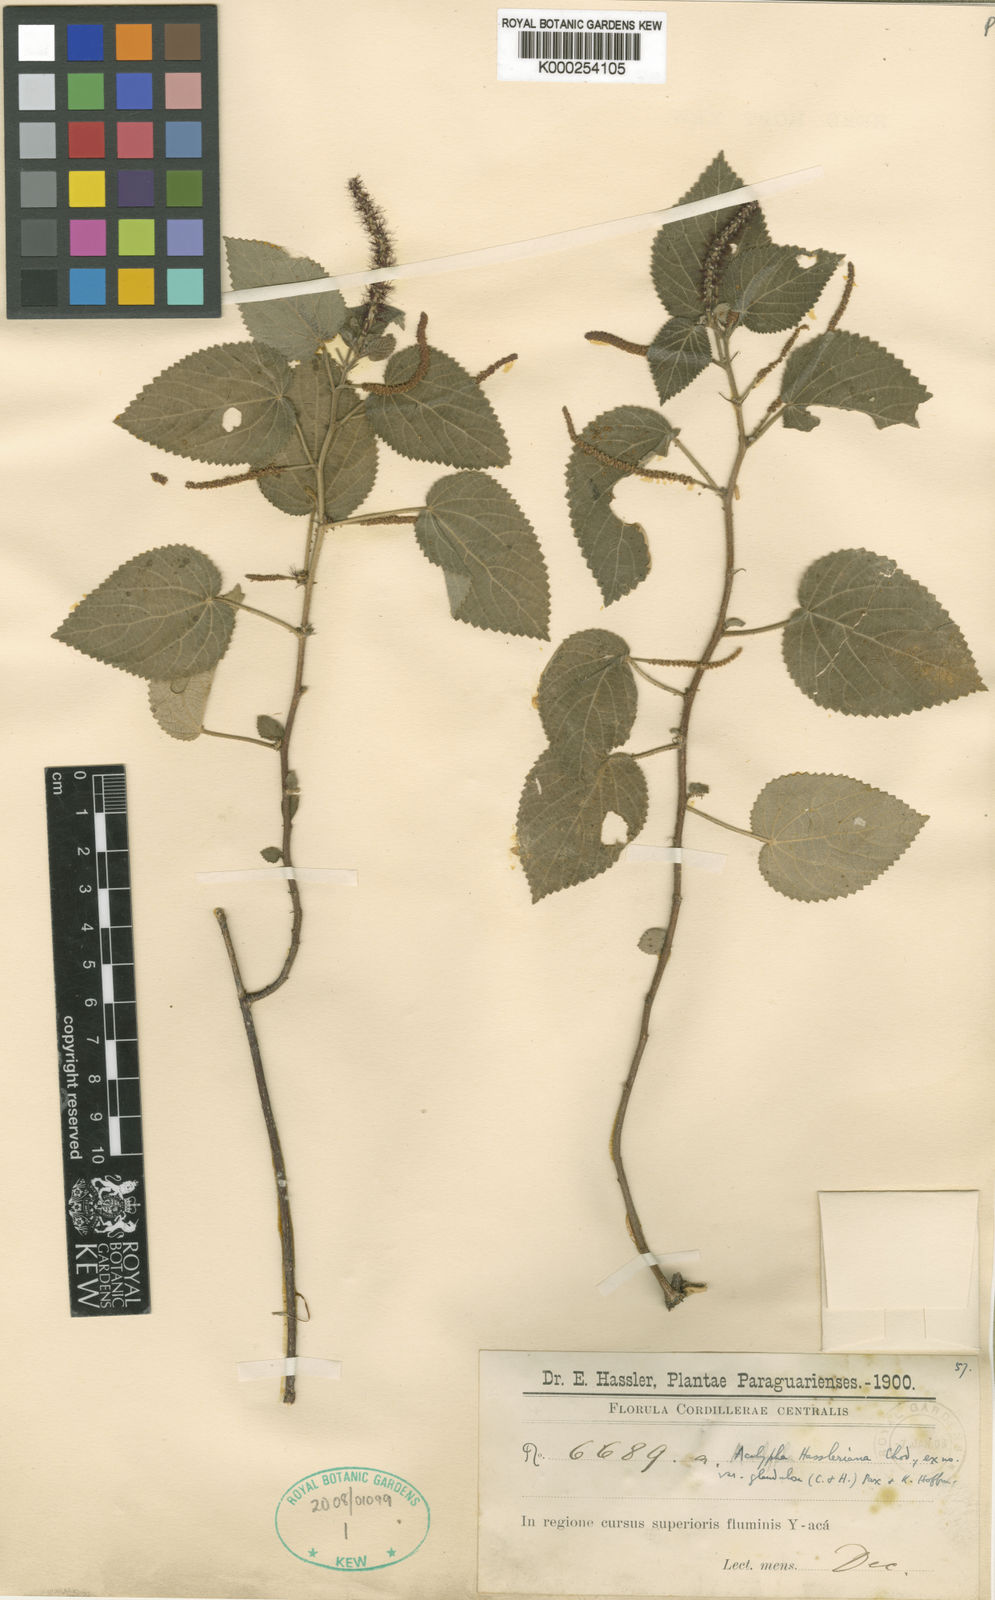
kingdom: Plantae
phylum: Tracheophyta
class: Magnoliopsida
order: Malpighiales
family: Euphorbiaceae
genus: Acalypha
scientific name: Acalypha hassleriana
